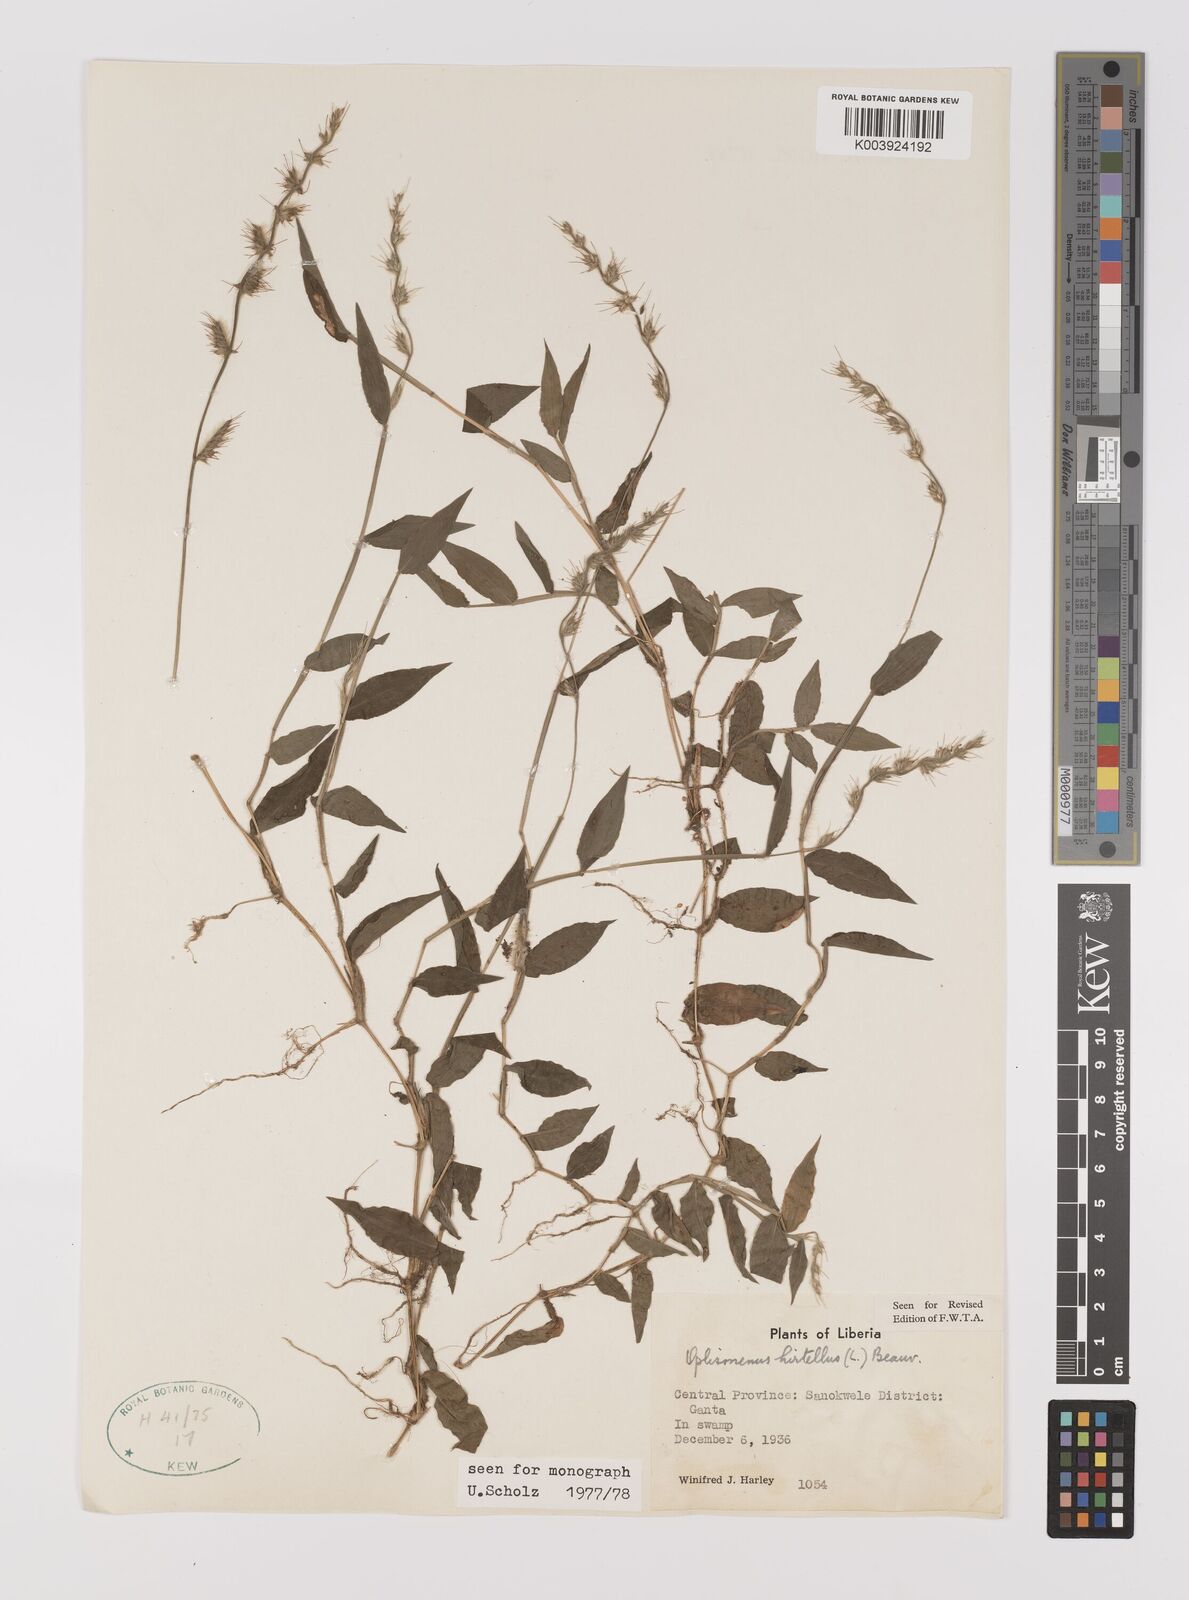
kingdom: Plantae
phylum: Tracheophyta
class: Liliopsida
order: Poales
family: Poaceae
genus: Oplismenus
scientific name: Oplismenus hirtellus
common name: Basketgrass
